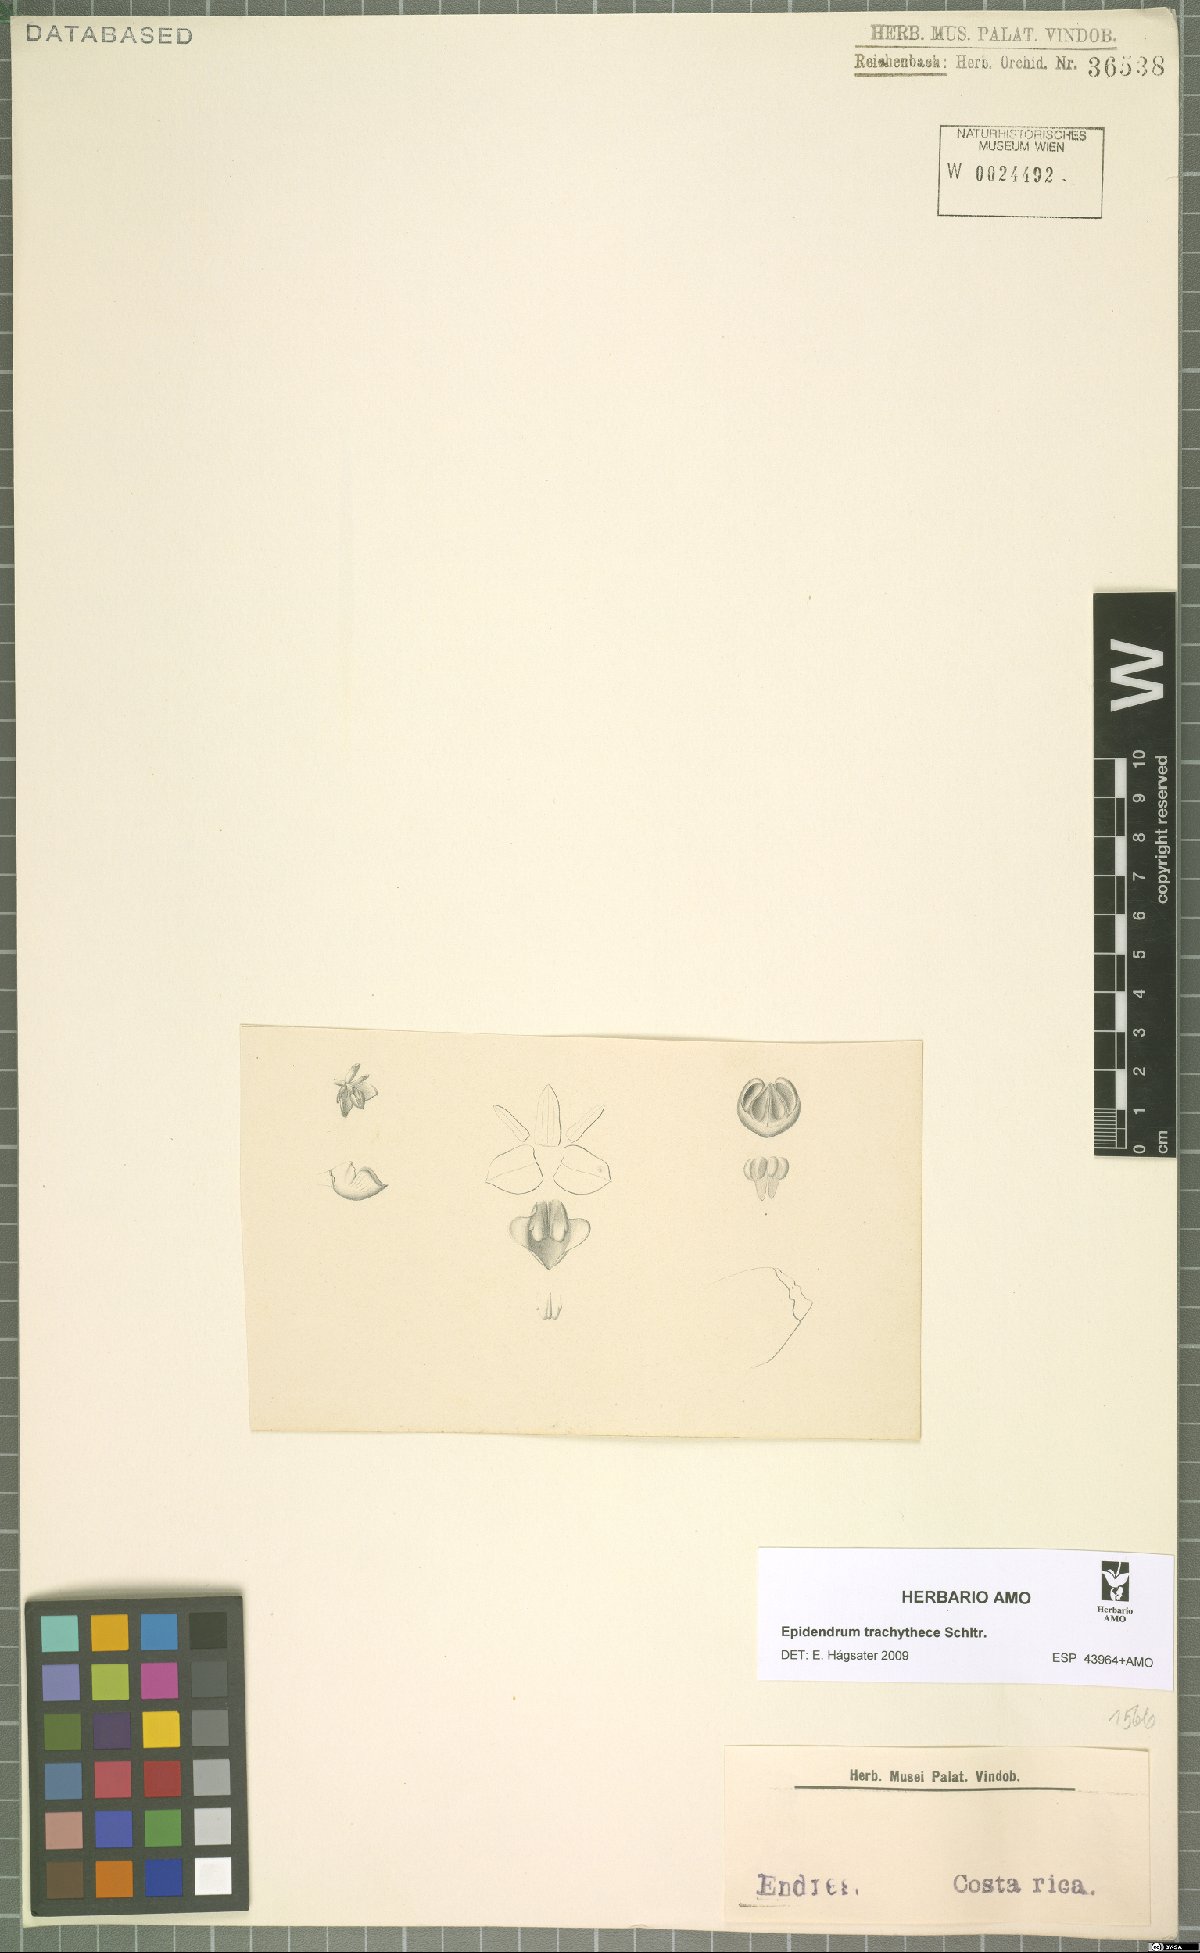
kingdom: Plantae
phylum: Tracheophyta
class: Liliopsida
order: Asparagales
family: Orchidaceae
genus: Epidendrum
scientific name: Epidendrum trachythece
